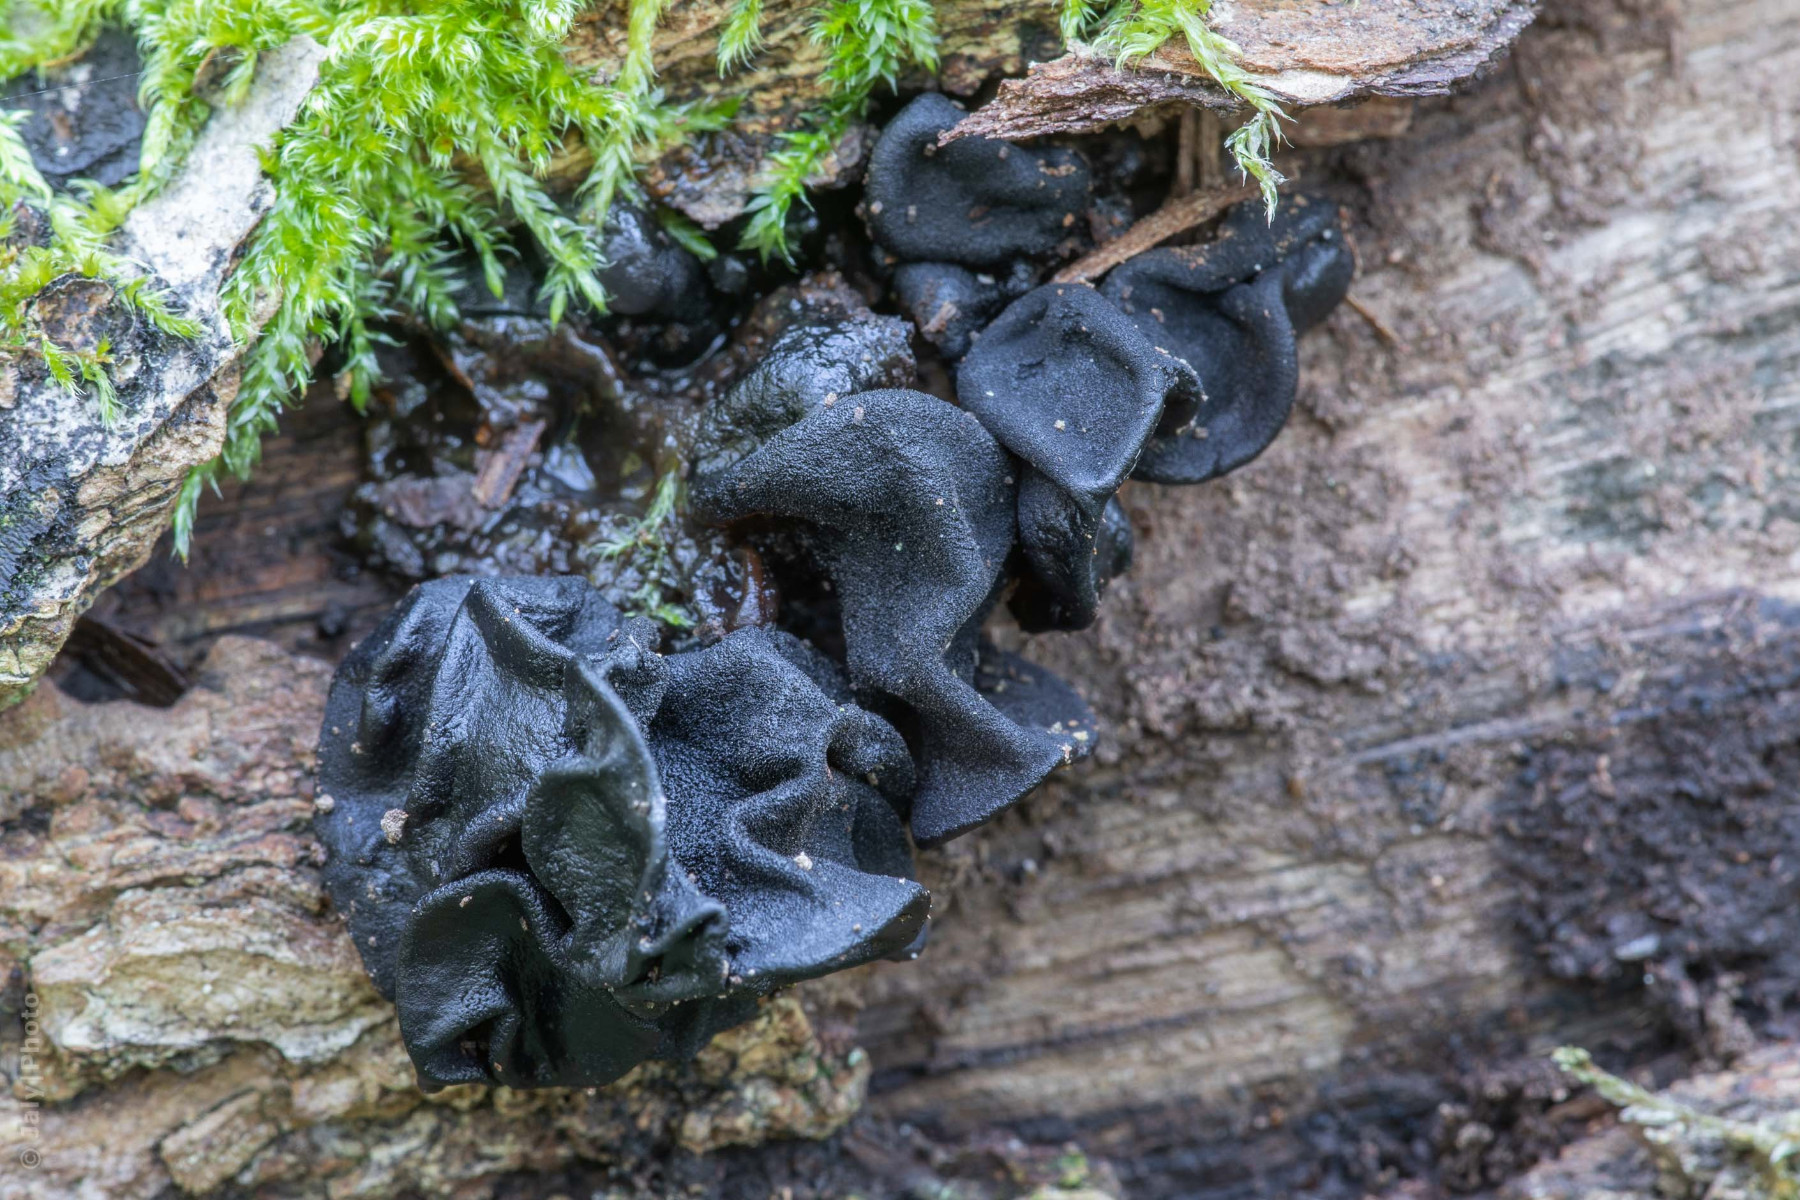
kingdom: Fungi
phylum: Basidiomycota
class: Agaricomycetes
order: Auriculariales
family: Auriculariaceae
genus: Exidia
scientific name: Exidia glandulosa
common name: ege-bævretop
